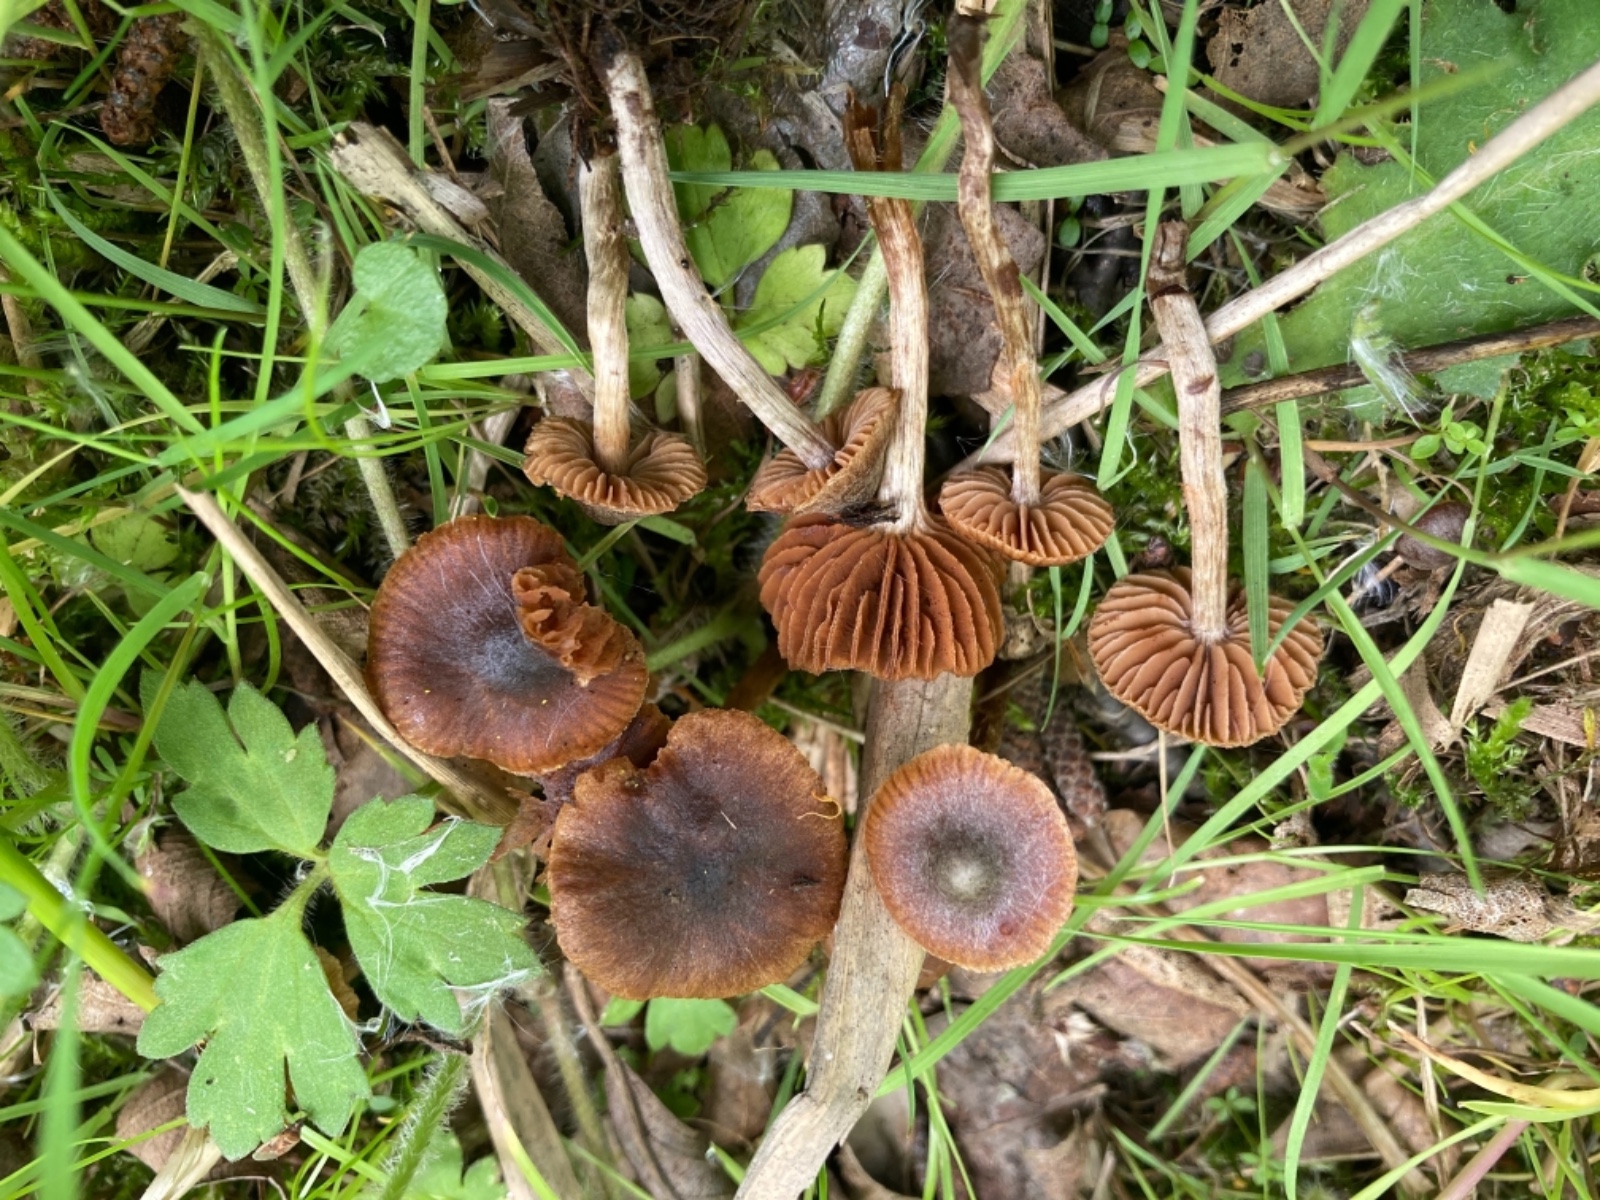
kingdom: Fungi
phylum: Basidiomycota
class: Agaricomycetes
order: Agaricales
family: Cortinariaceae
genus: Cortinarius
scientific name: Cortinarius ammophiloides
